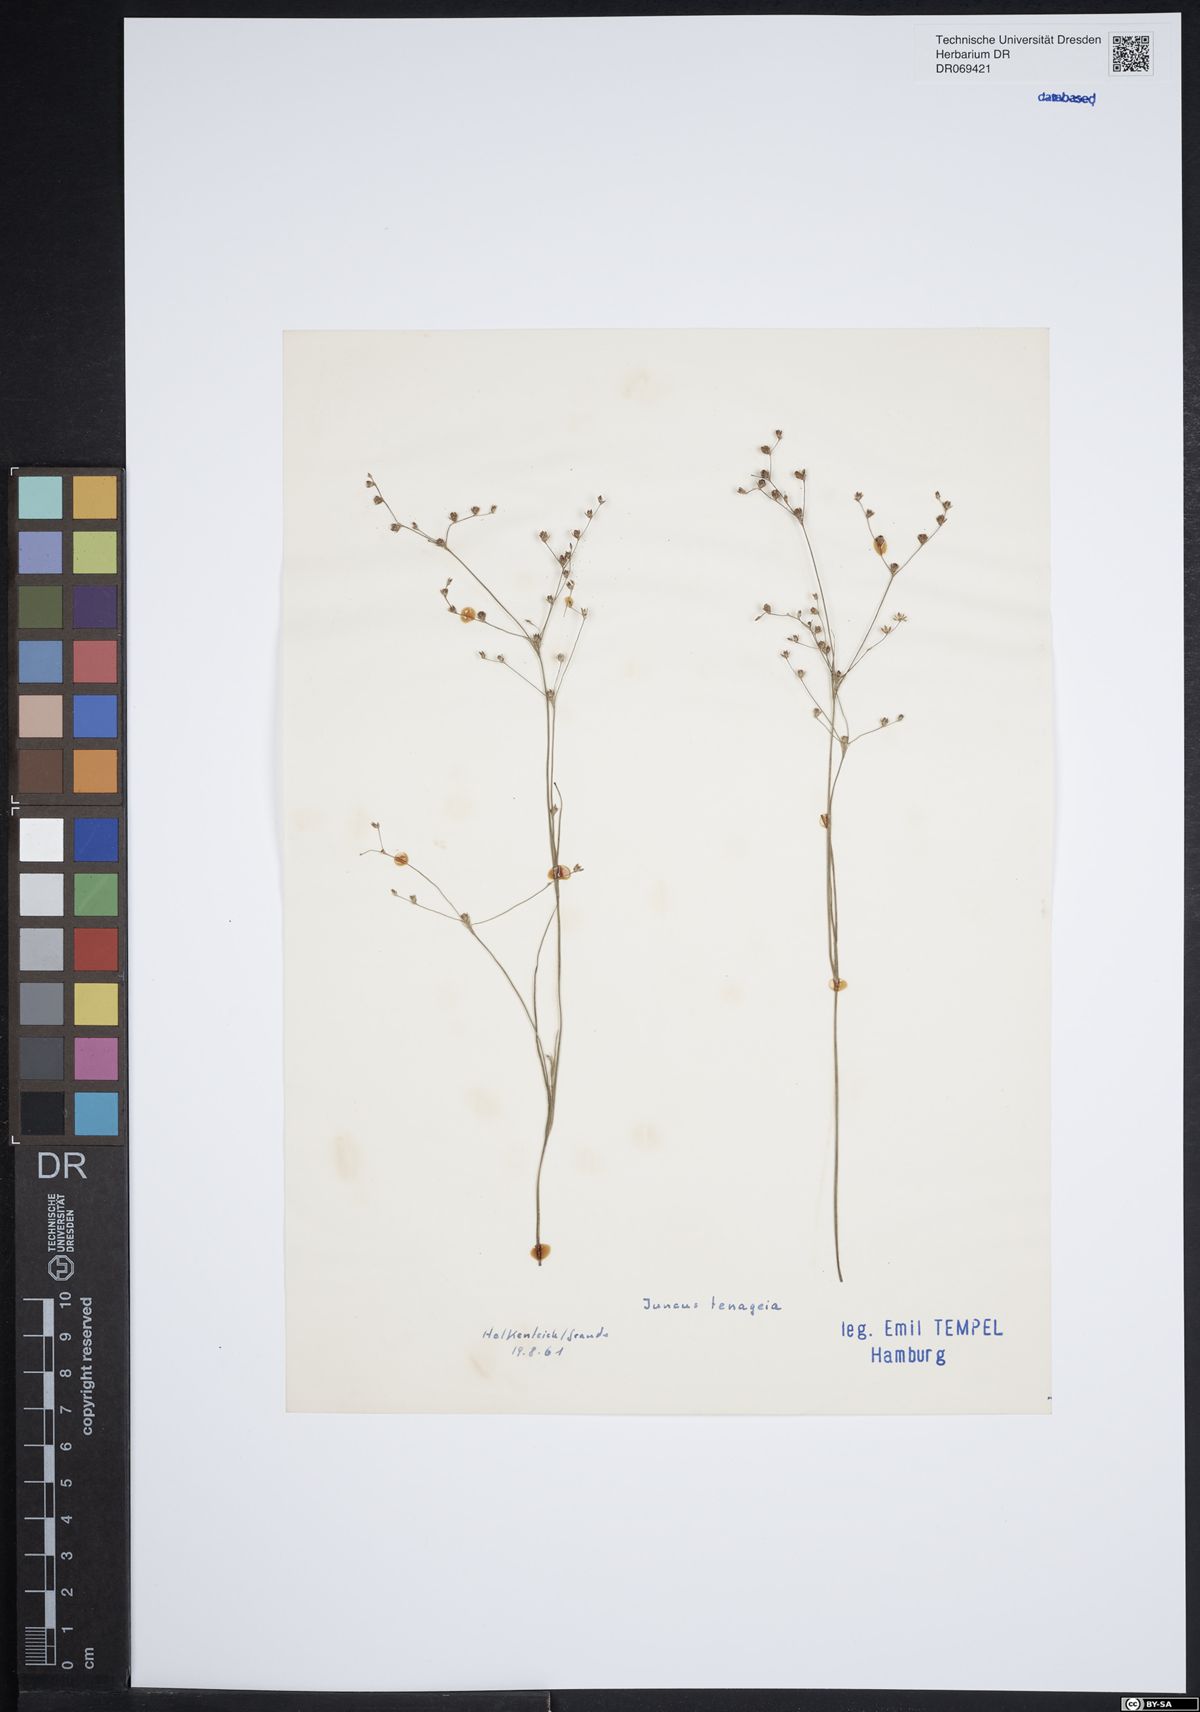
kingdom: Plantae
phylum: Tracheophyta
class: Liliopsida
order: Poales
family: Juncaceae
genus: Juncus
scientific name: Juncus tenageia
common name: Sand rush
